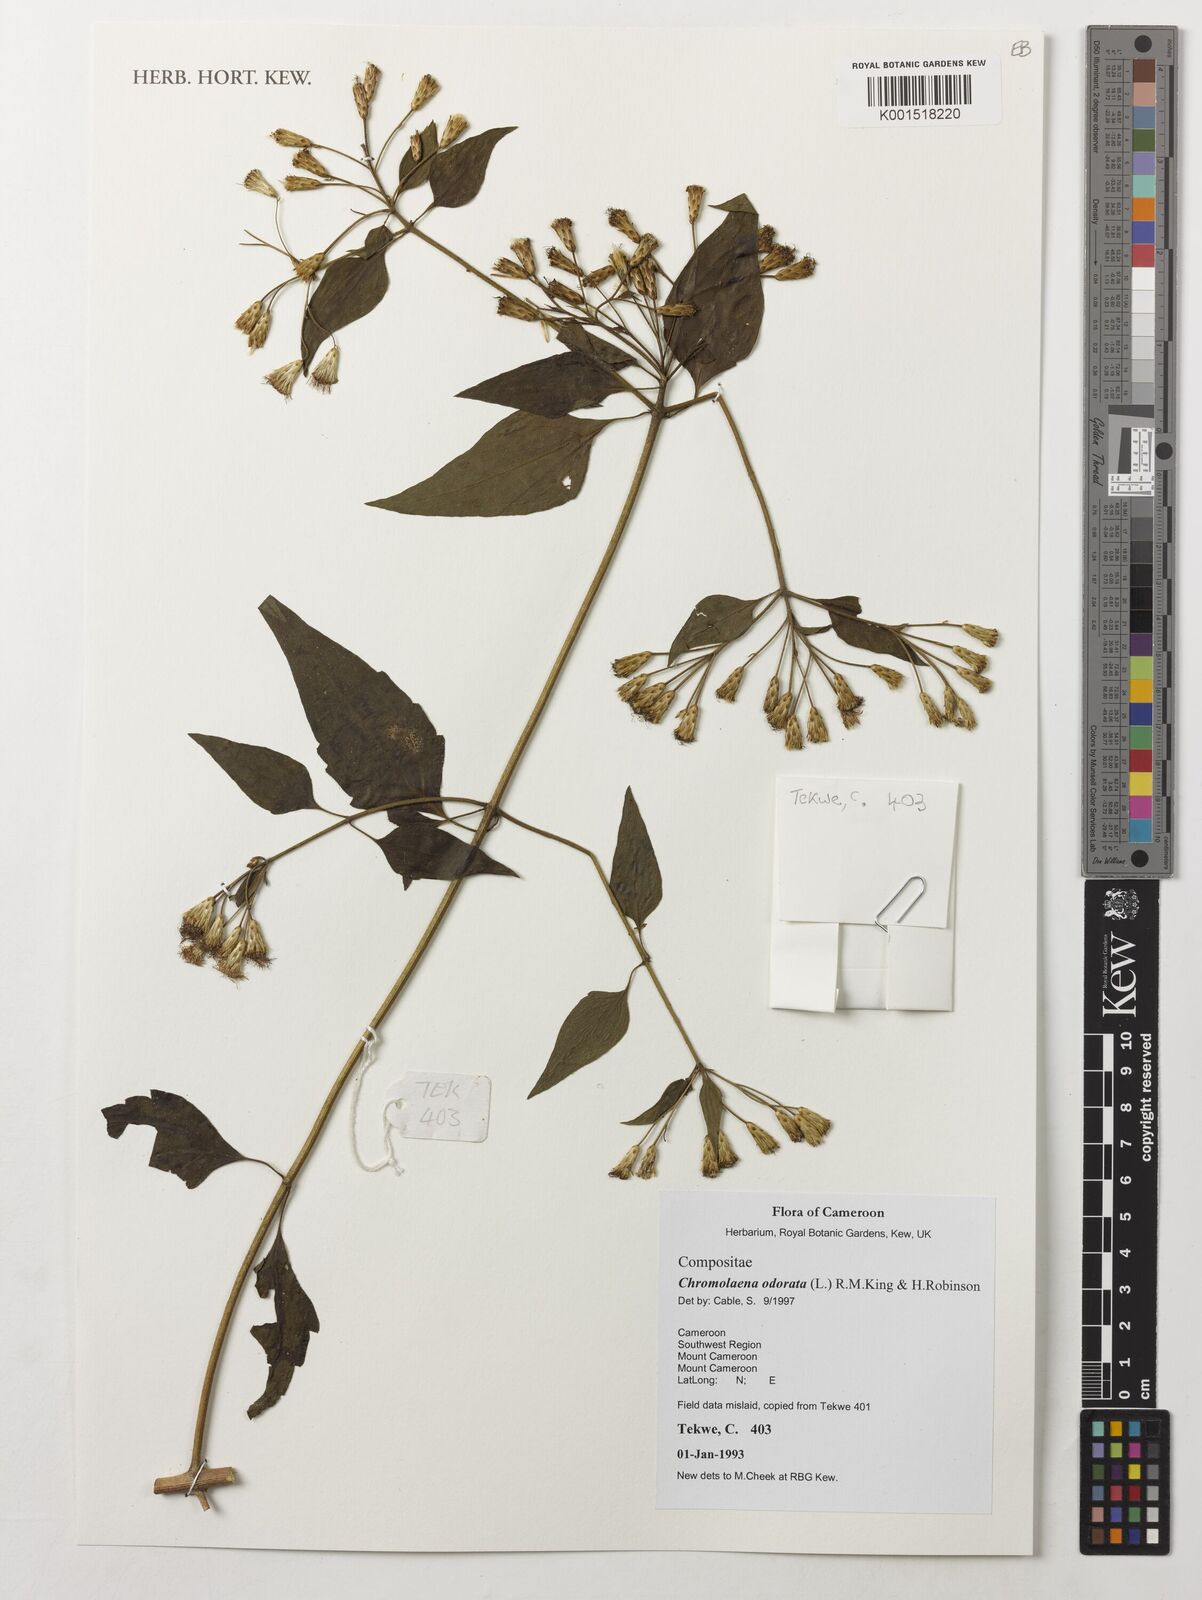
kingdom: Plantae
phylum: Tracheophyta
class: Magnoliopsida
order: Asterales
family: Asteraceae
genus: Chromolaena
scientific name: Chromolaena odorata
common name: Siamweed
